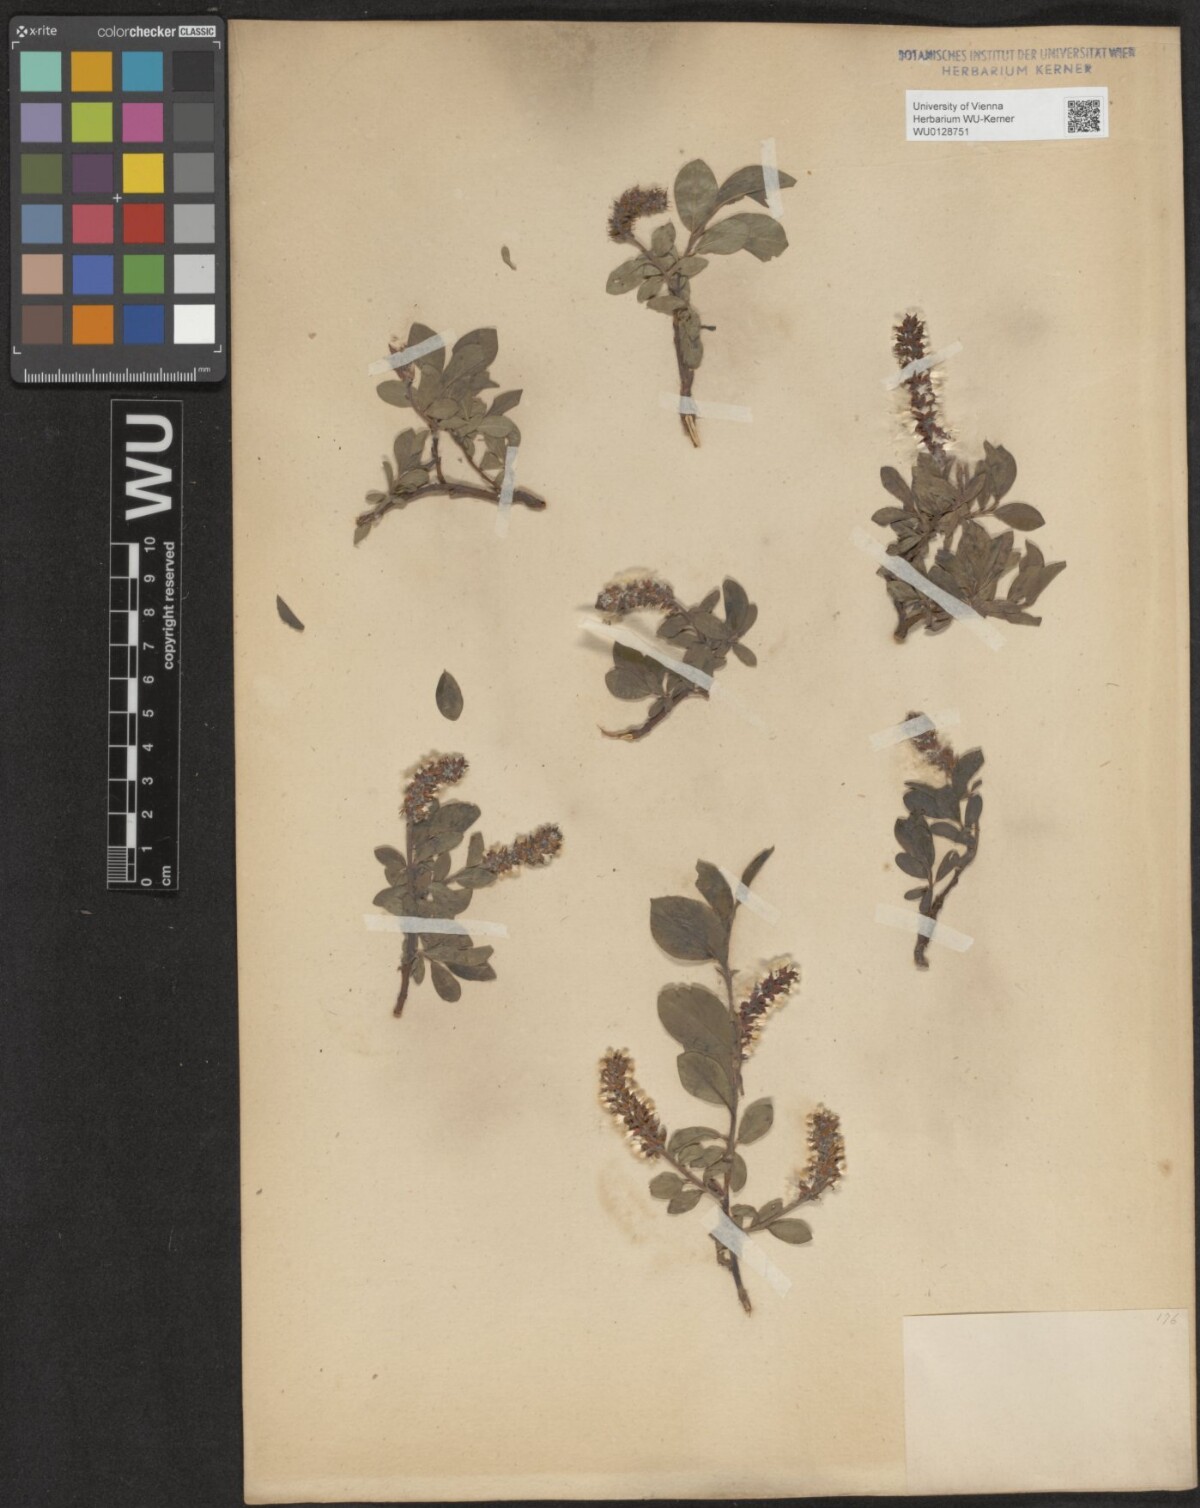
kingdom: Plantae
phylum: Tracheophyta
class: Magnoliopsida
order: Malpighiales
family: Salicaceae
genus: Salix
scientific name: Salix alpina
